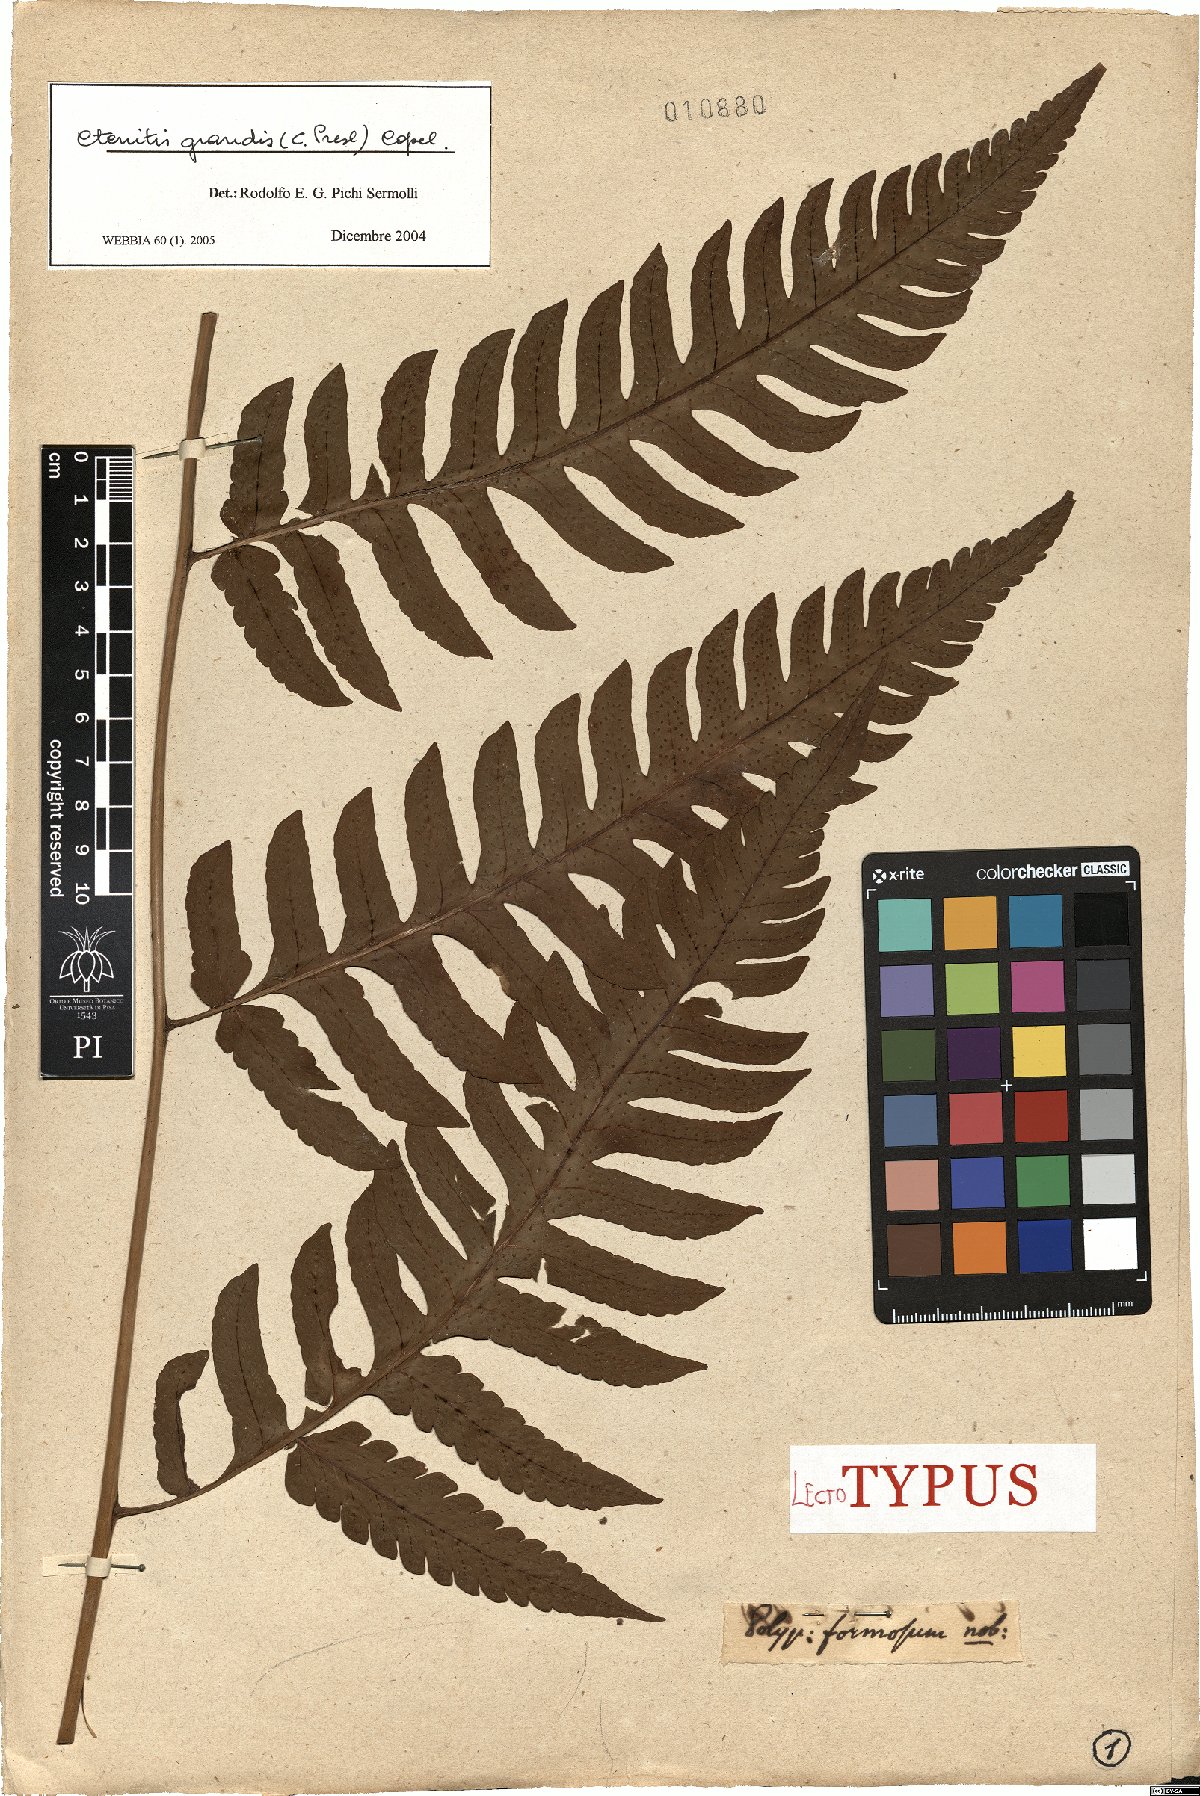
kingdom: Plantae
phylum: Tracheophyta
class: Polypodiopsida
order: Polypodiales
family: Dryopteridaceae
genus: Megalastrum
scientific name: Megalastrum grande
